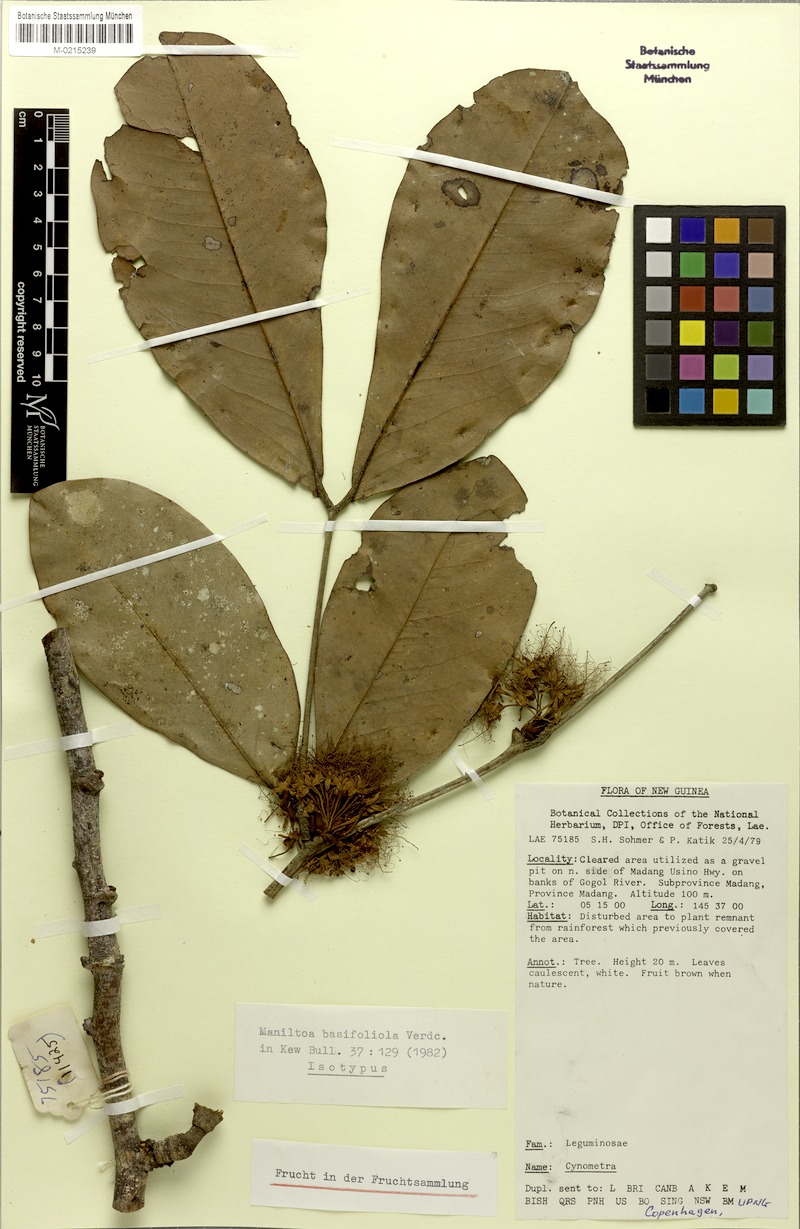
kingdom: Plantae
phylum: Tracheophyta
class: Magnoliopsida
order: Fabales
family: Fabaceae
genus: Cynometra
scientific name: Cynometra basifoliola
